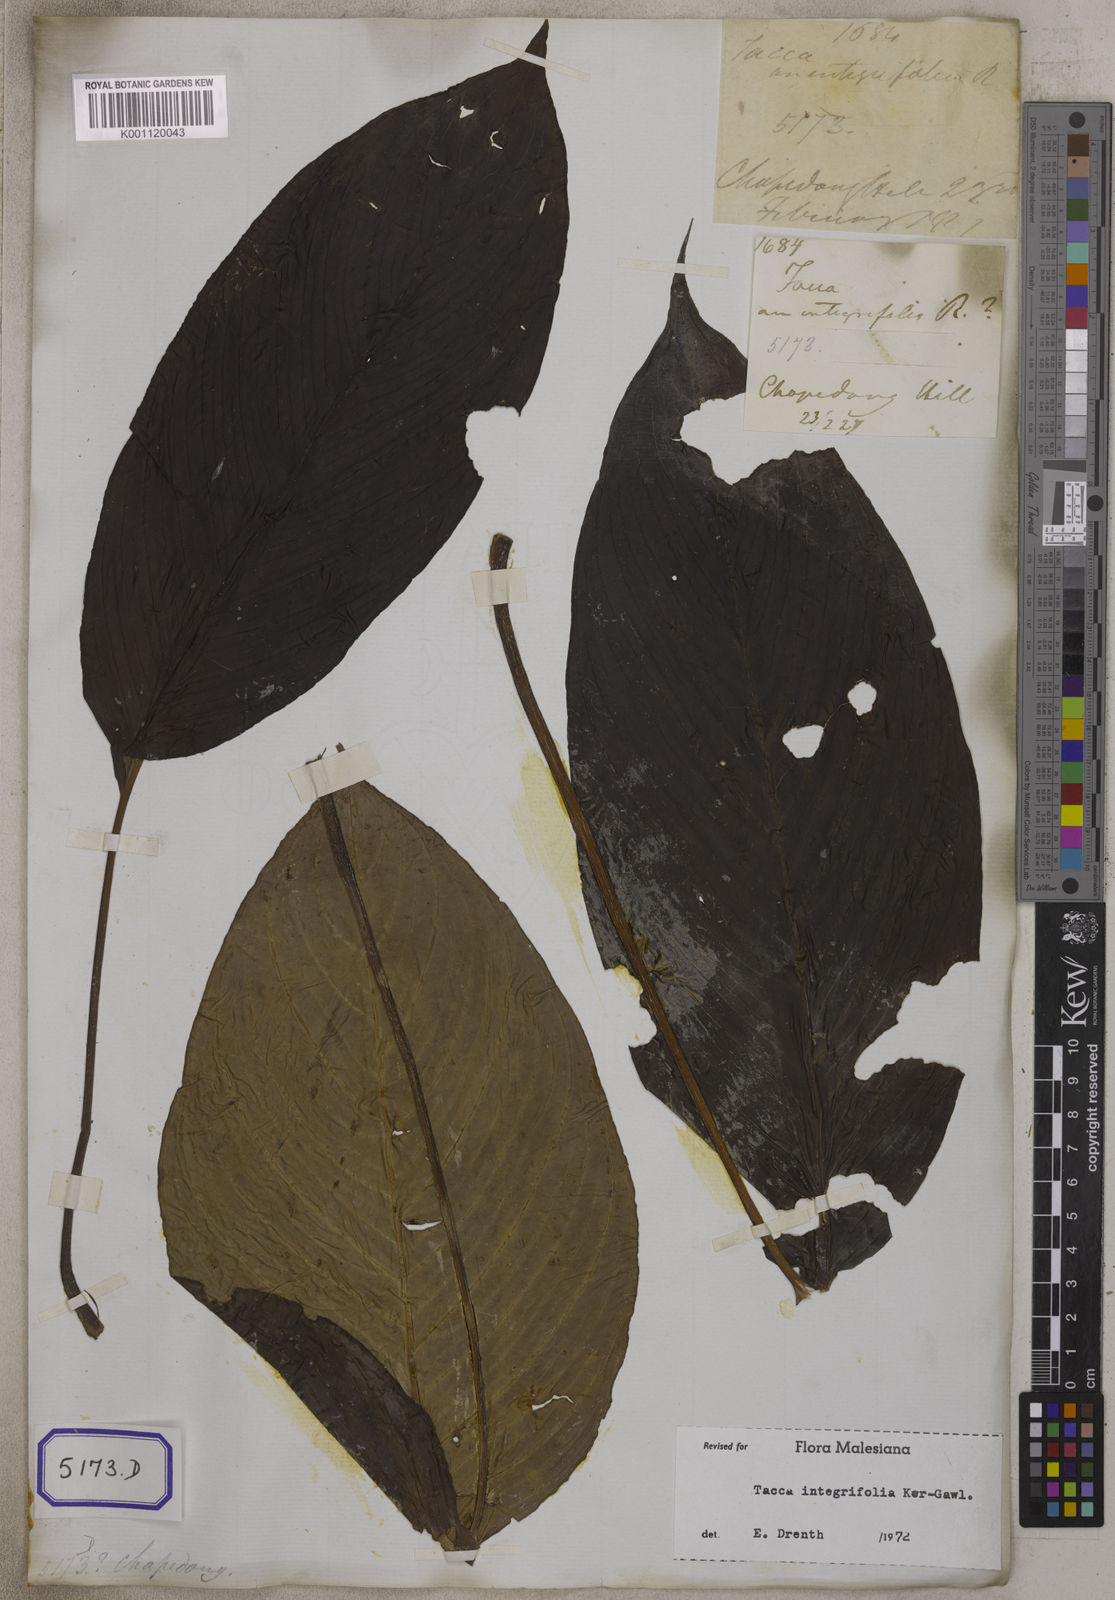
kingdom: Plantae
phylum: Tracheophyta
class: Liliopsida
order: Dioscoreales
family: Dioscoreaceae
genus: Tacca
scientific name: Tacca integrifolia
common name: Batplant
